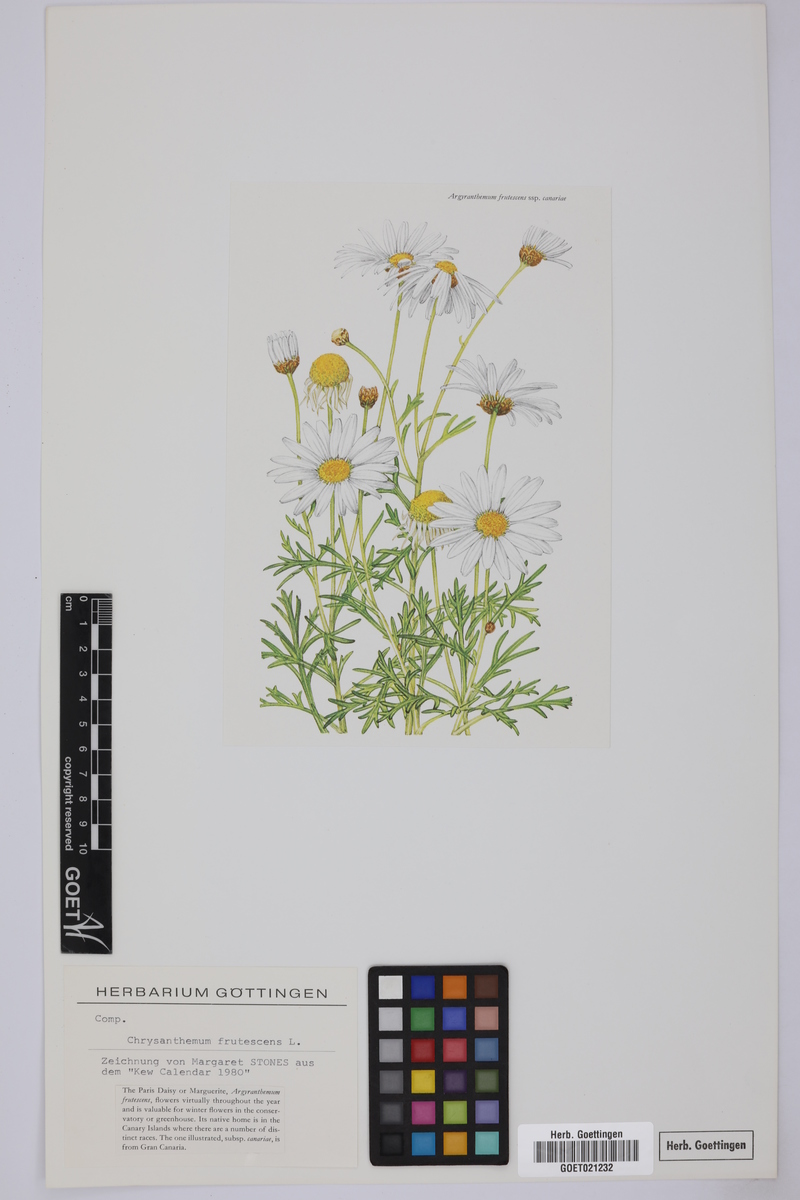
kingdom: Plantae
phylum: Tracheophyta
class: Magnoliopsida
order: Asterales
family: Asteraceae
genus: Argyranthemum
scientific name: Argyranthemum frutescens
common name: Paris daisy
